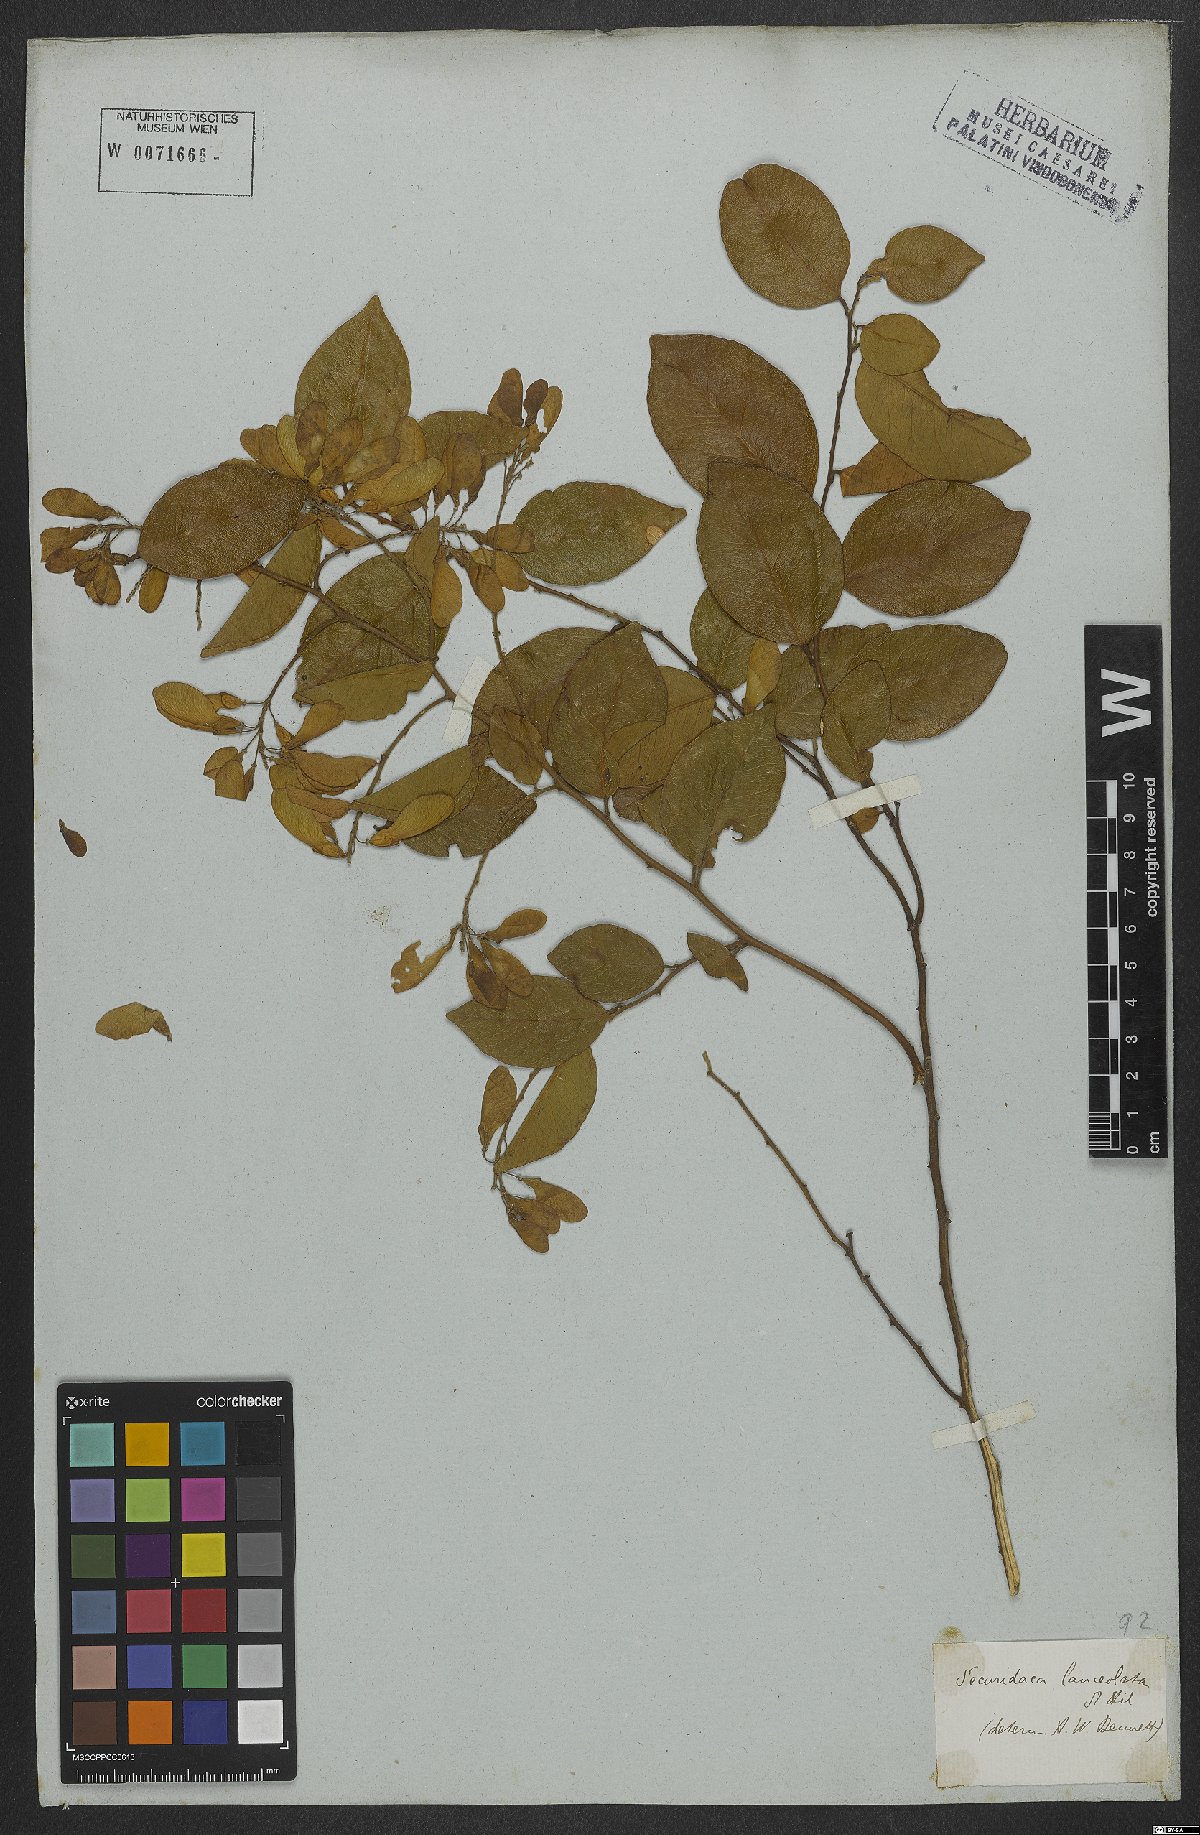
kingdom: Plantae
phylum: Tracheophyta
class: Magnoliopsida
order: Fabales
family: Polygalaceae
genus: Securidaca
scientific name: Securidaca lanceolata
